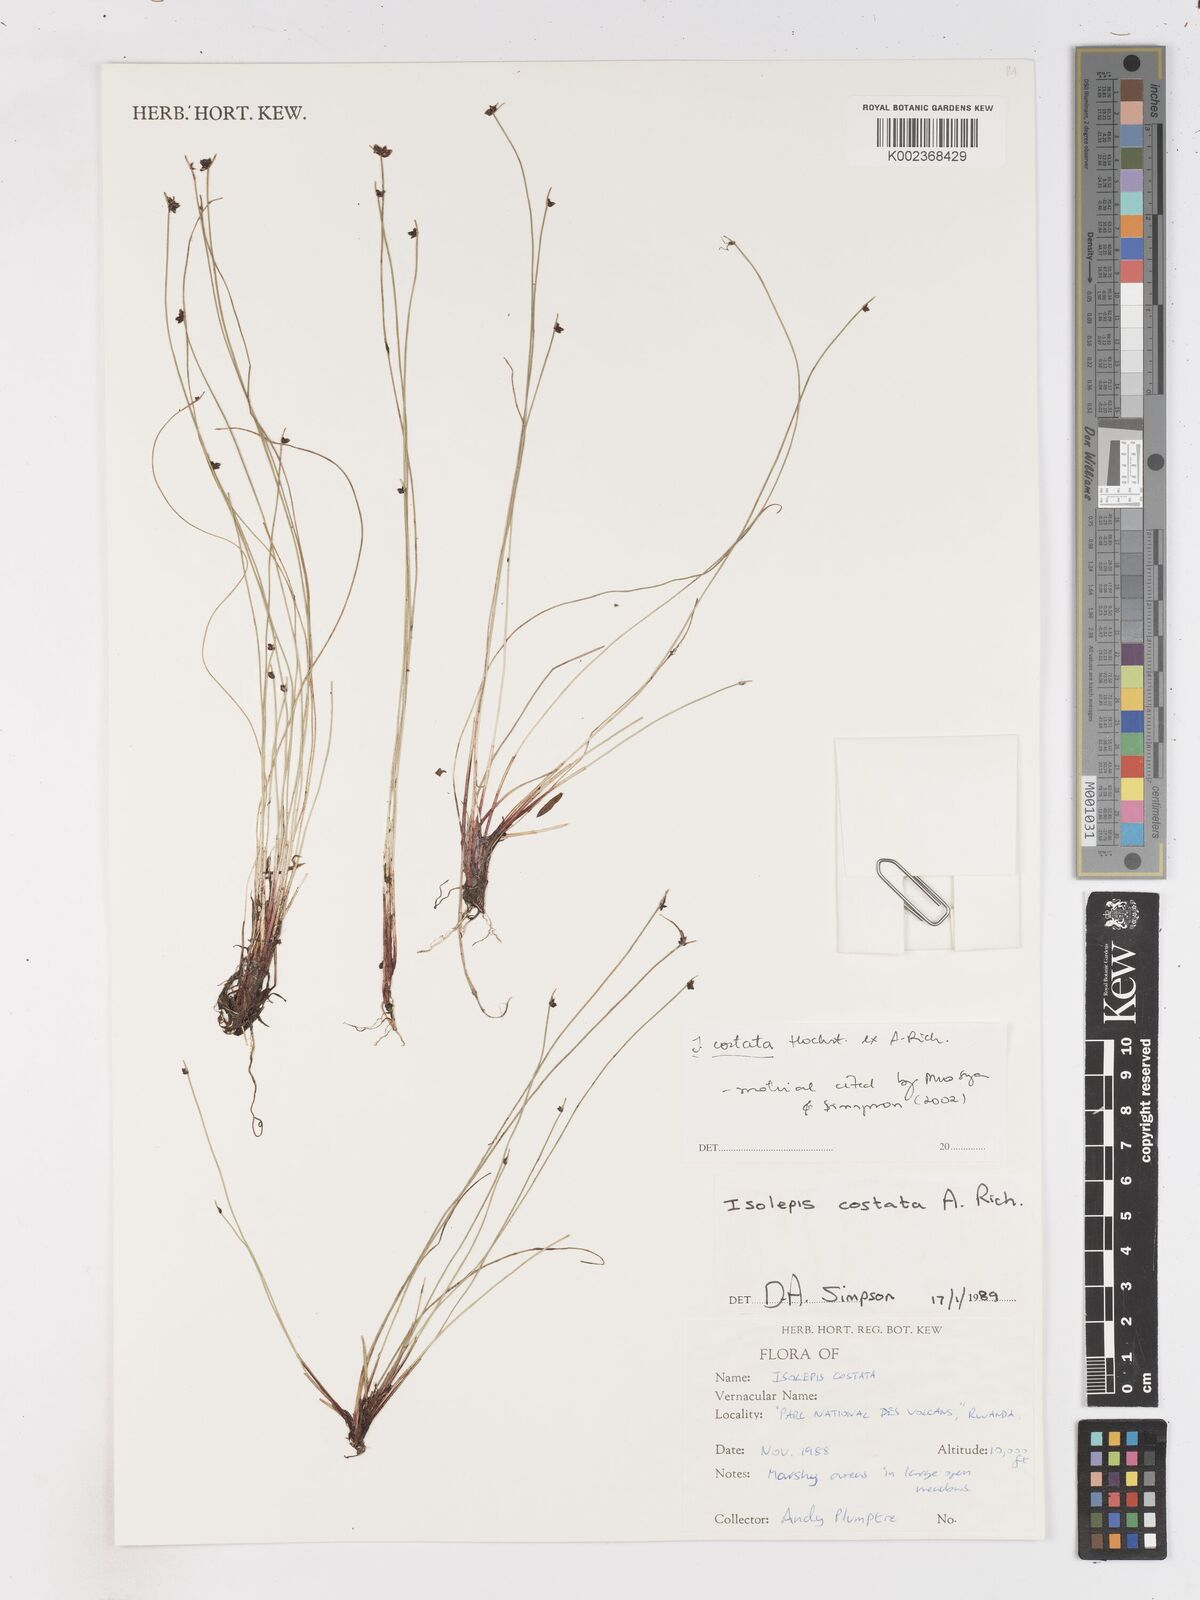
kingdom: Plantae
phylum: Tracheophyta
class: Liliopsida
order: Poales
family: Cyperaceae
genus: Isolepis
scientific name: Isolepis costata
